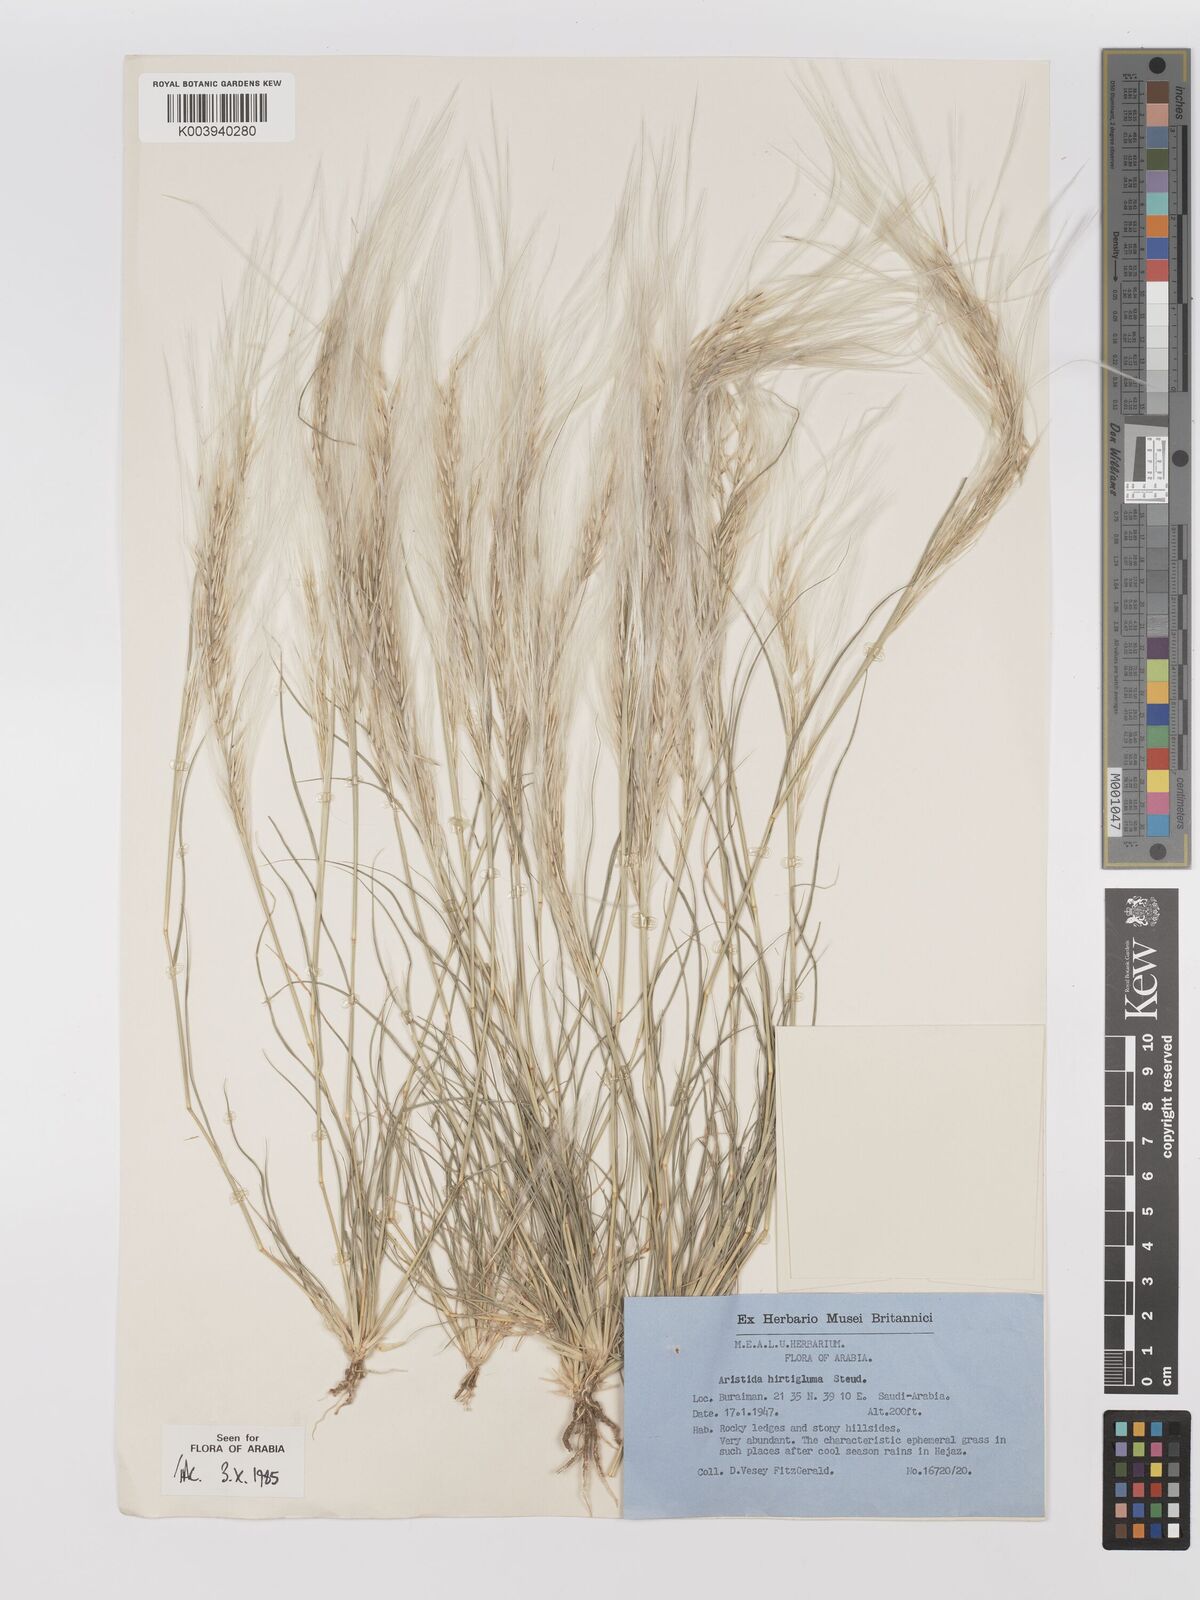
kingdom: Plantae
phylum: Tracheophyta
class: Liliopsida
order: Poales
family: Poaceae
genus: Stipagrostis
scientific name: Stipagrostis hirtigluma
